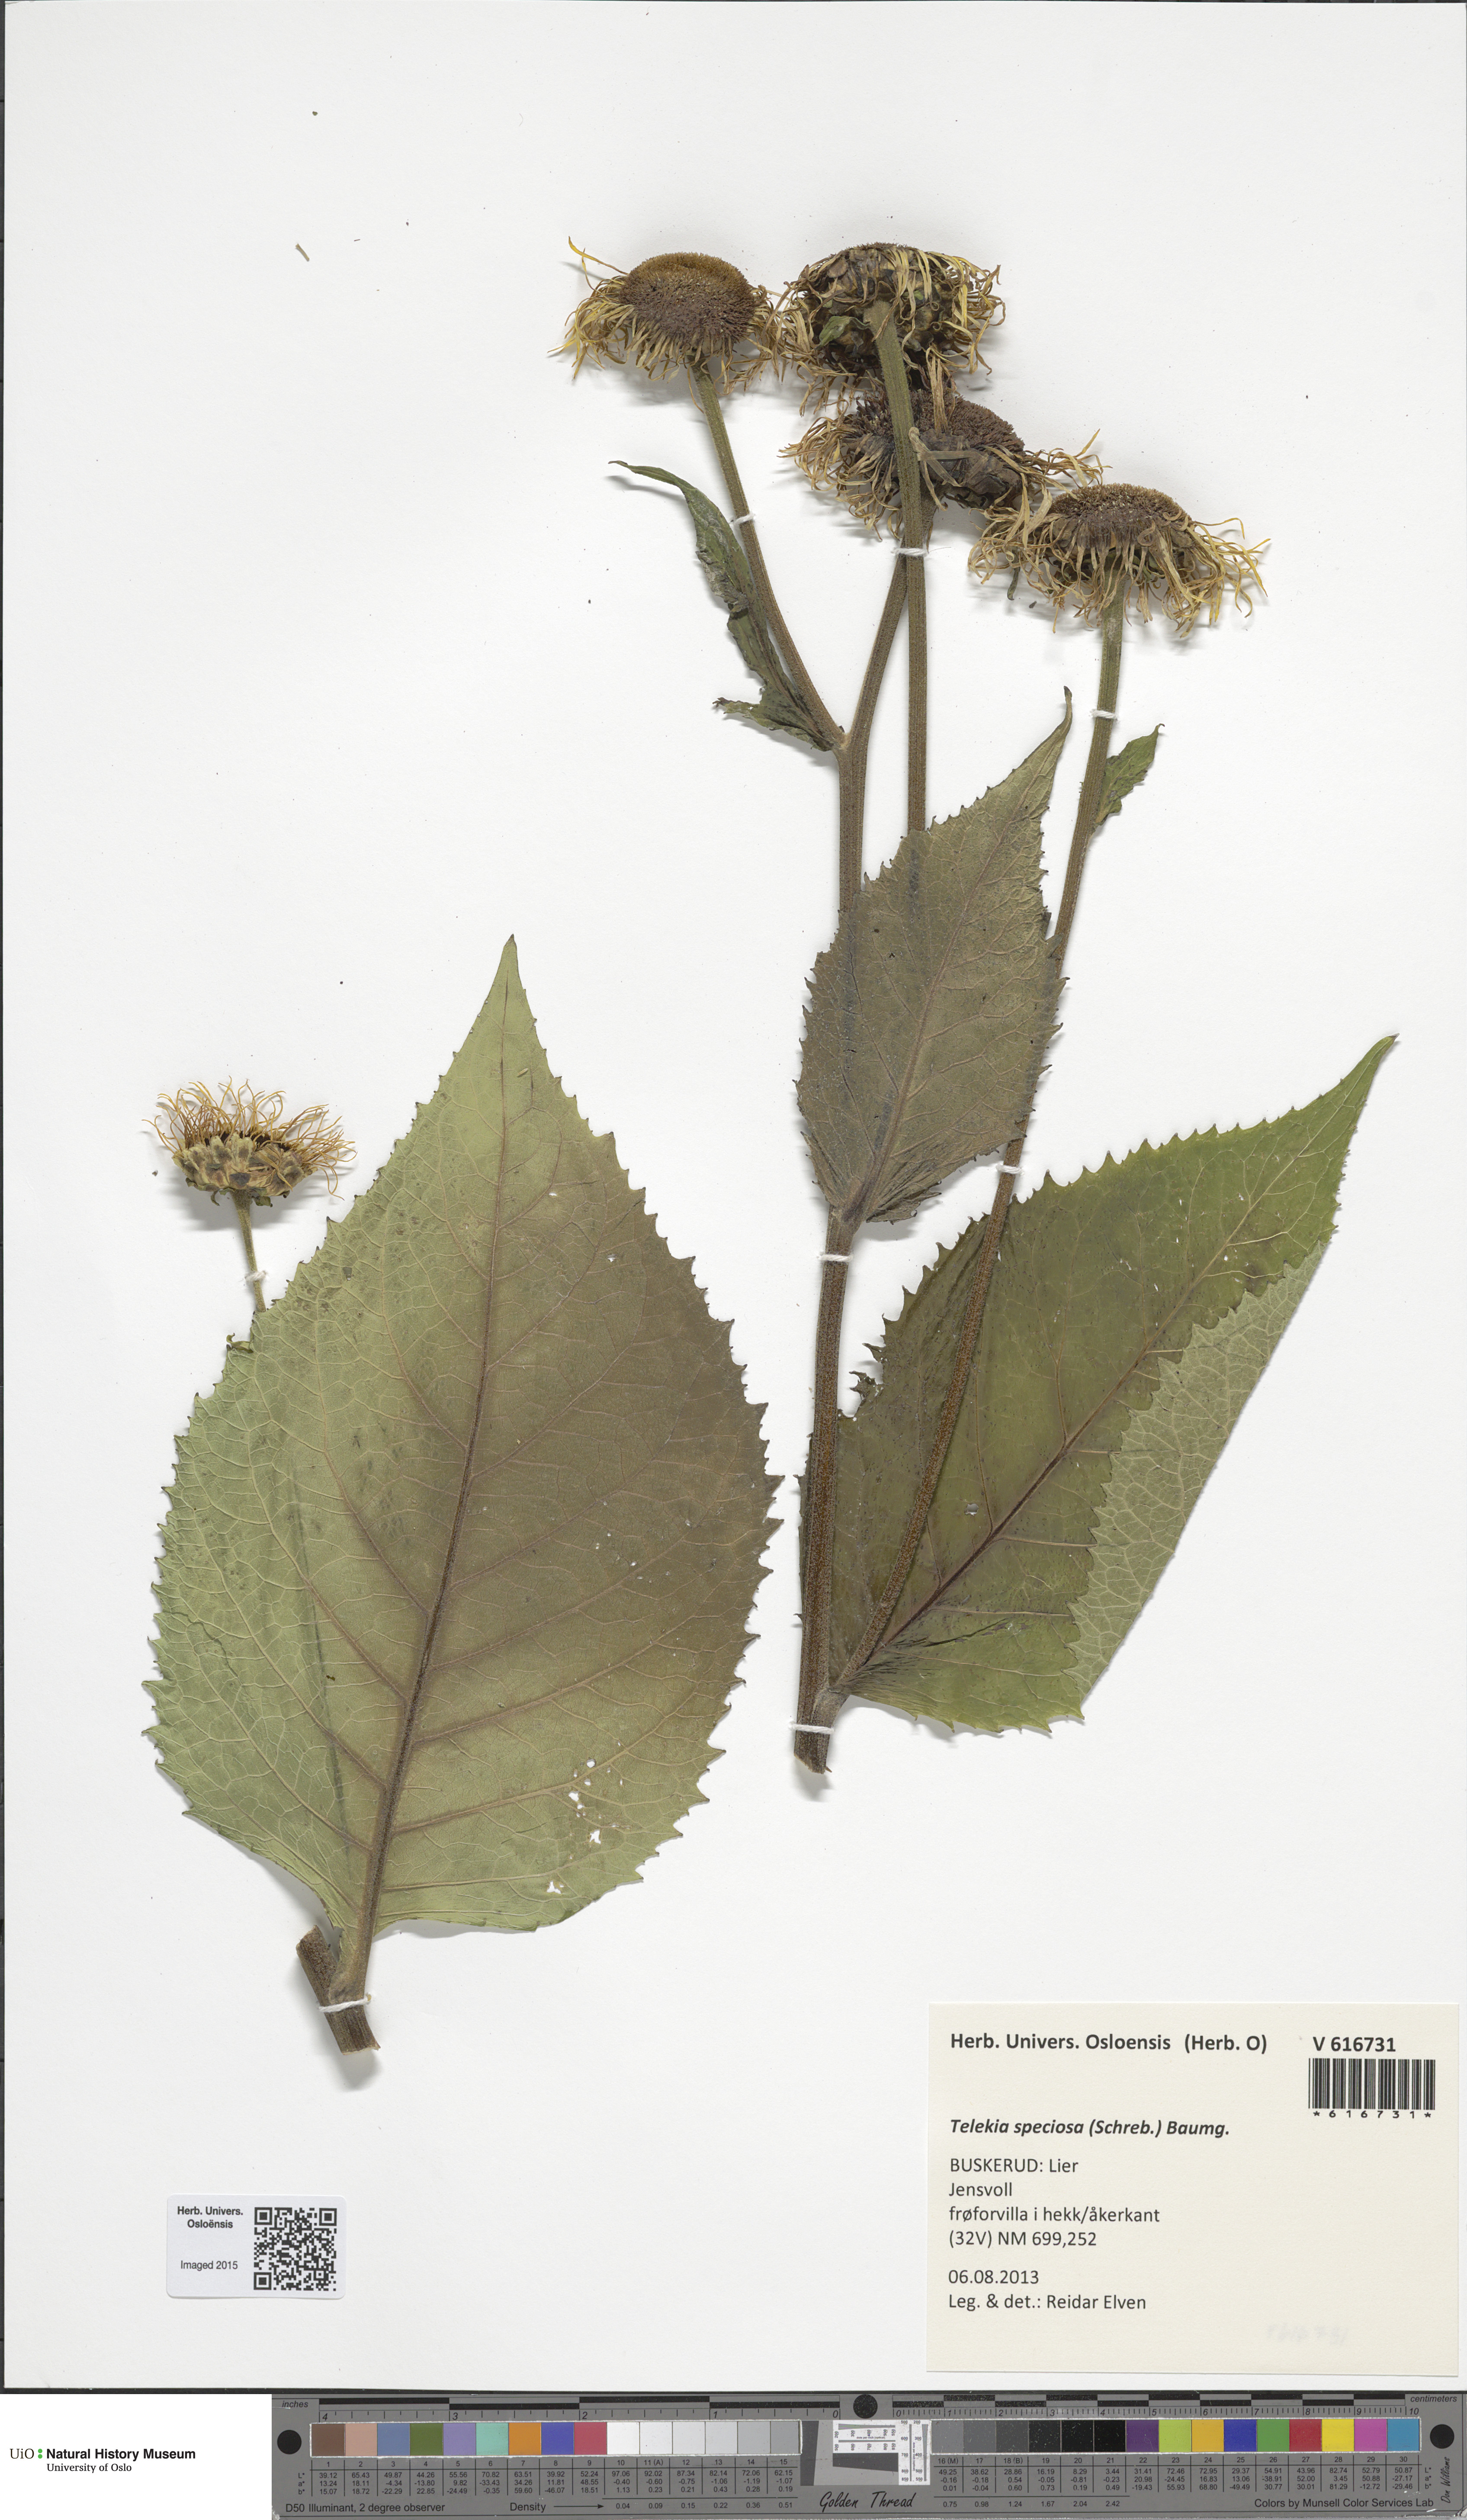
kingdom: Plantae
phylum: Tracheophyta
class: Magnoliopsida
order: Asterales
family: Asteraceae
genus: Telekia
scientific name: Telekia speciosa
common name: Yellow oxeye
